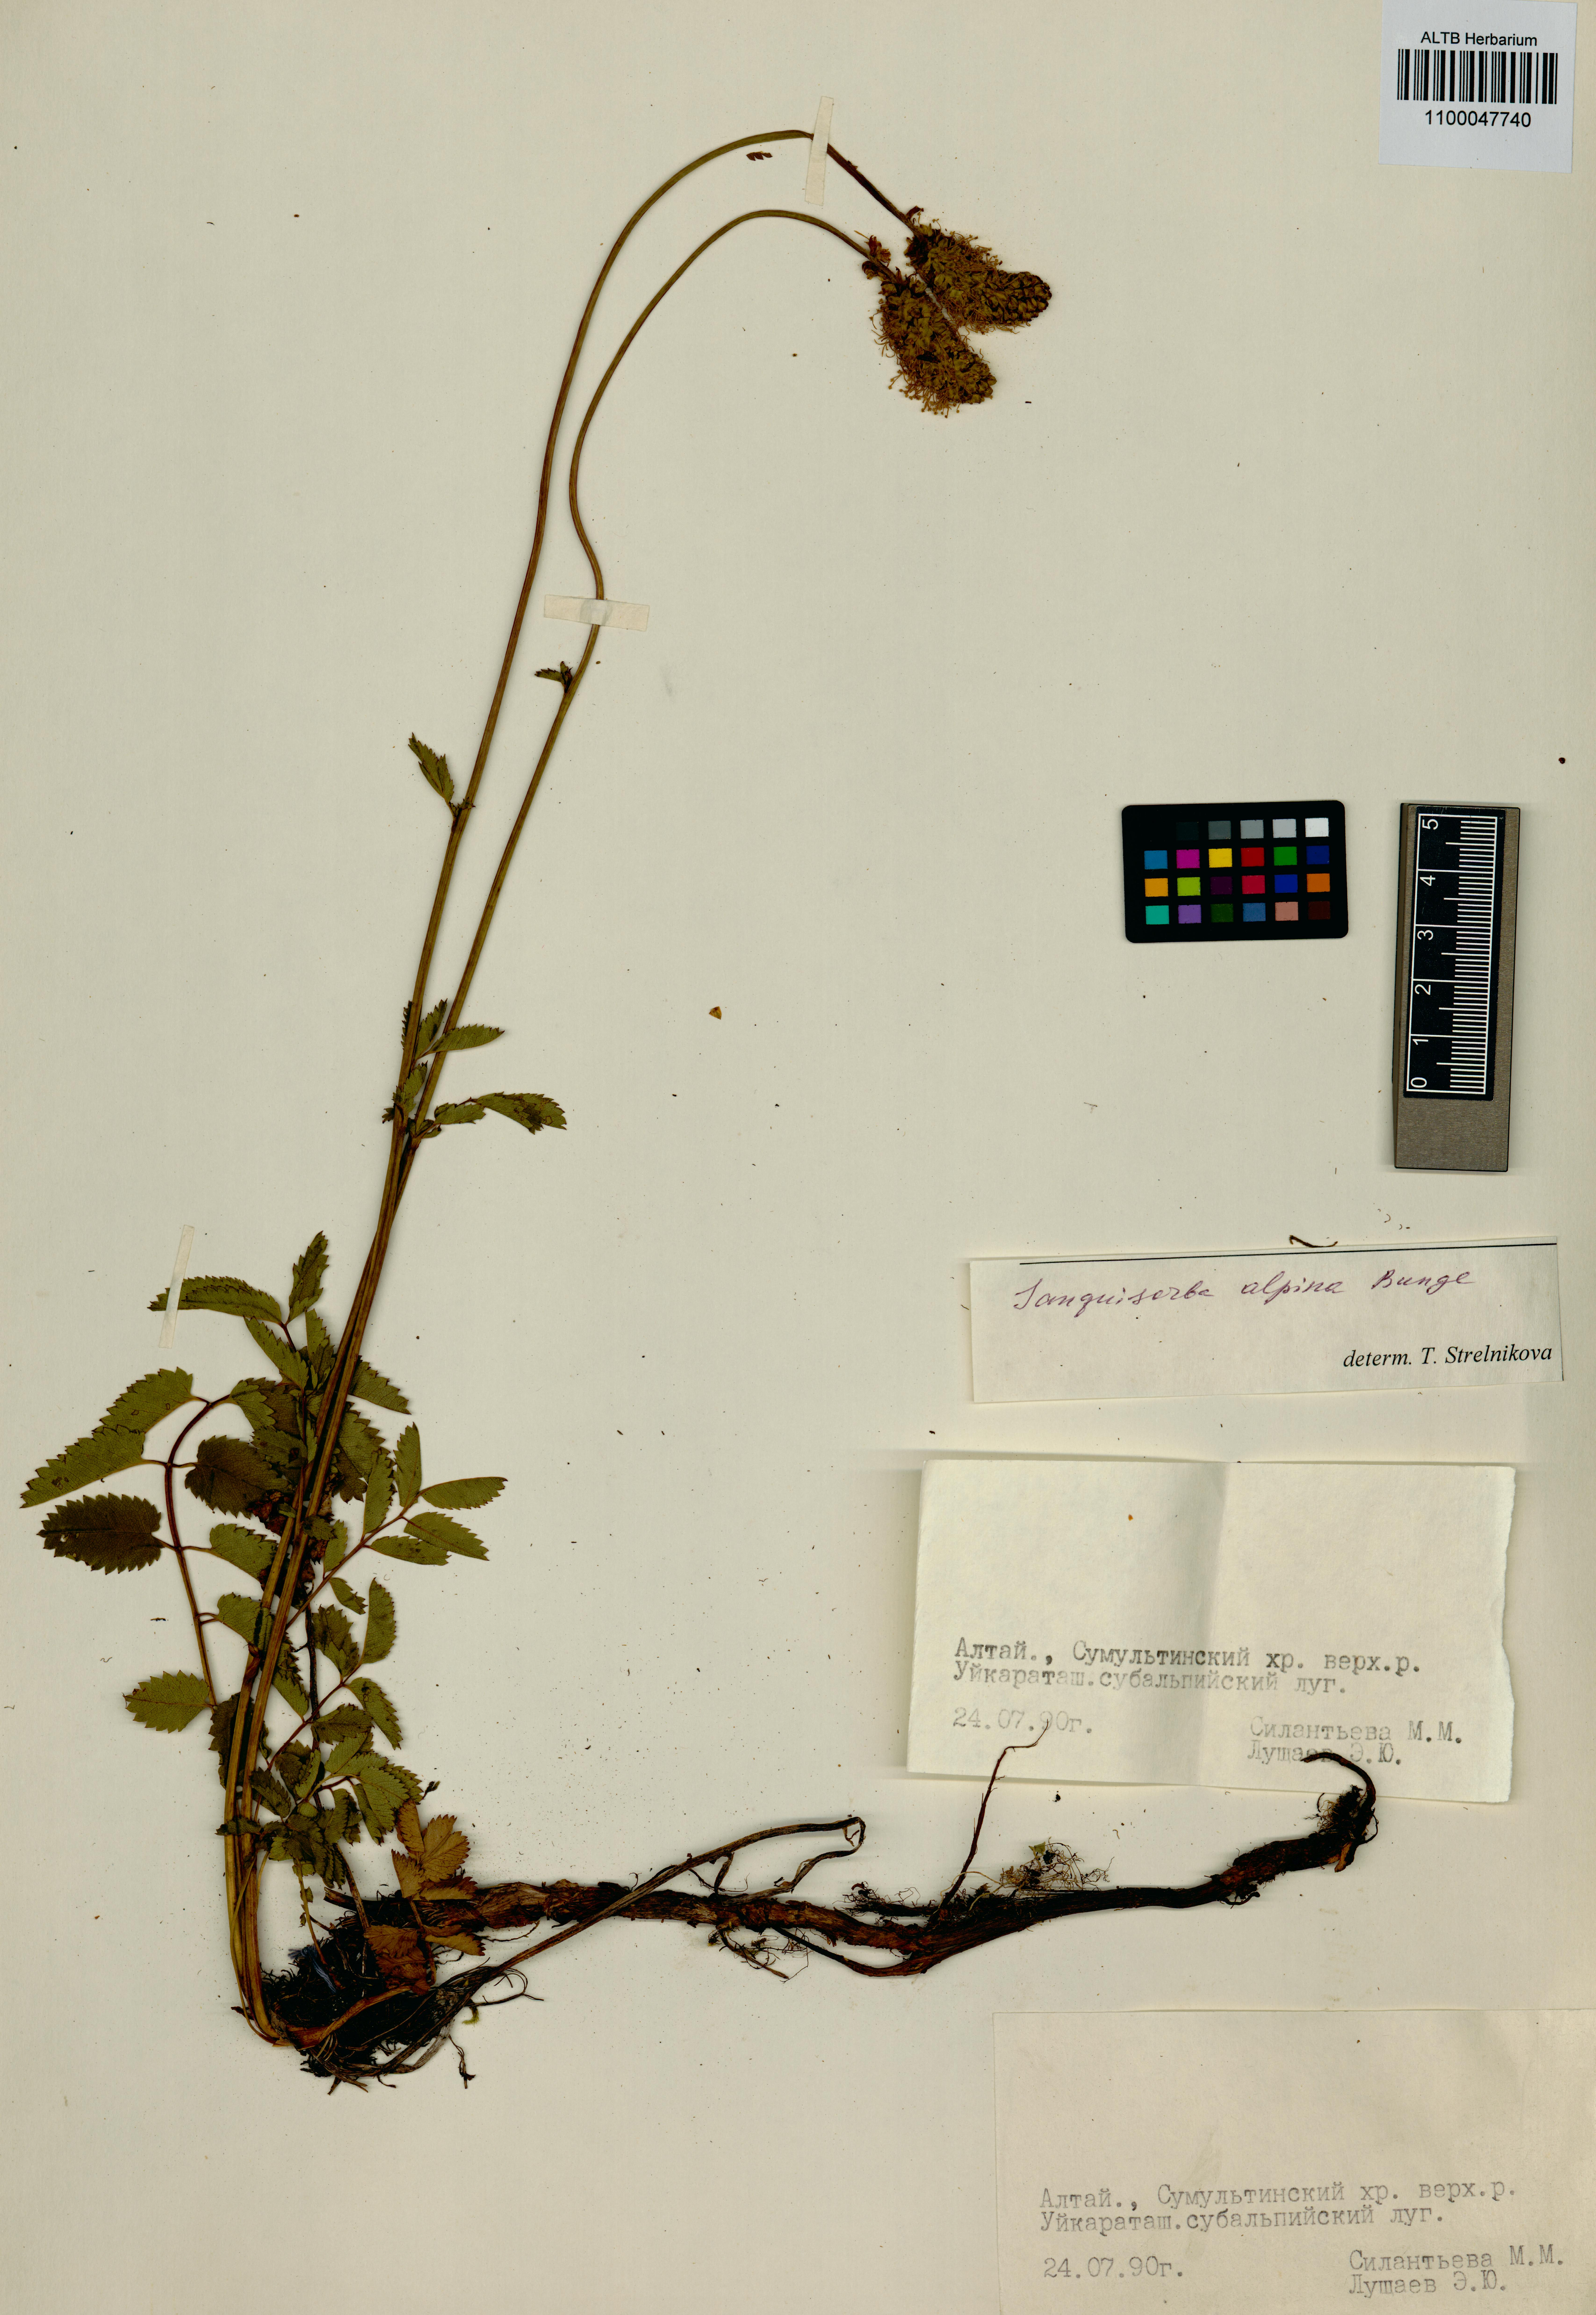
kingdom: Plantae
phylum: Tracheophyta
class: Magnoliopsida
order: Rosales
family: Rosaceae
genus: Sanguisorba
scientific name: Sanguisorba officinalis
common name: Great burnet
